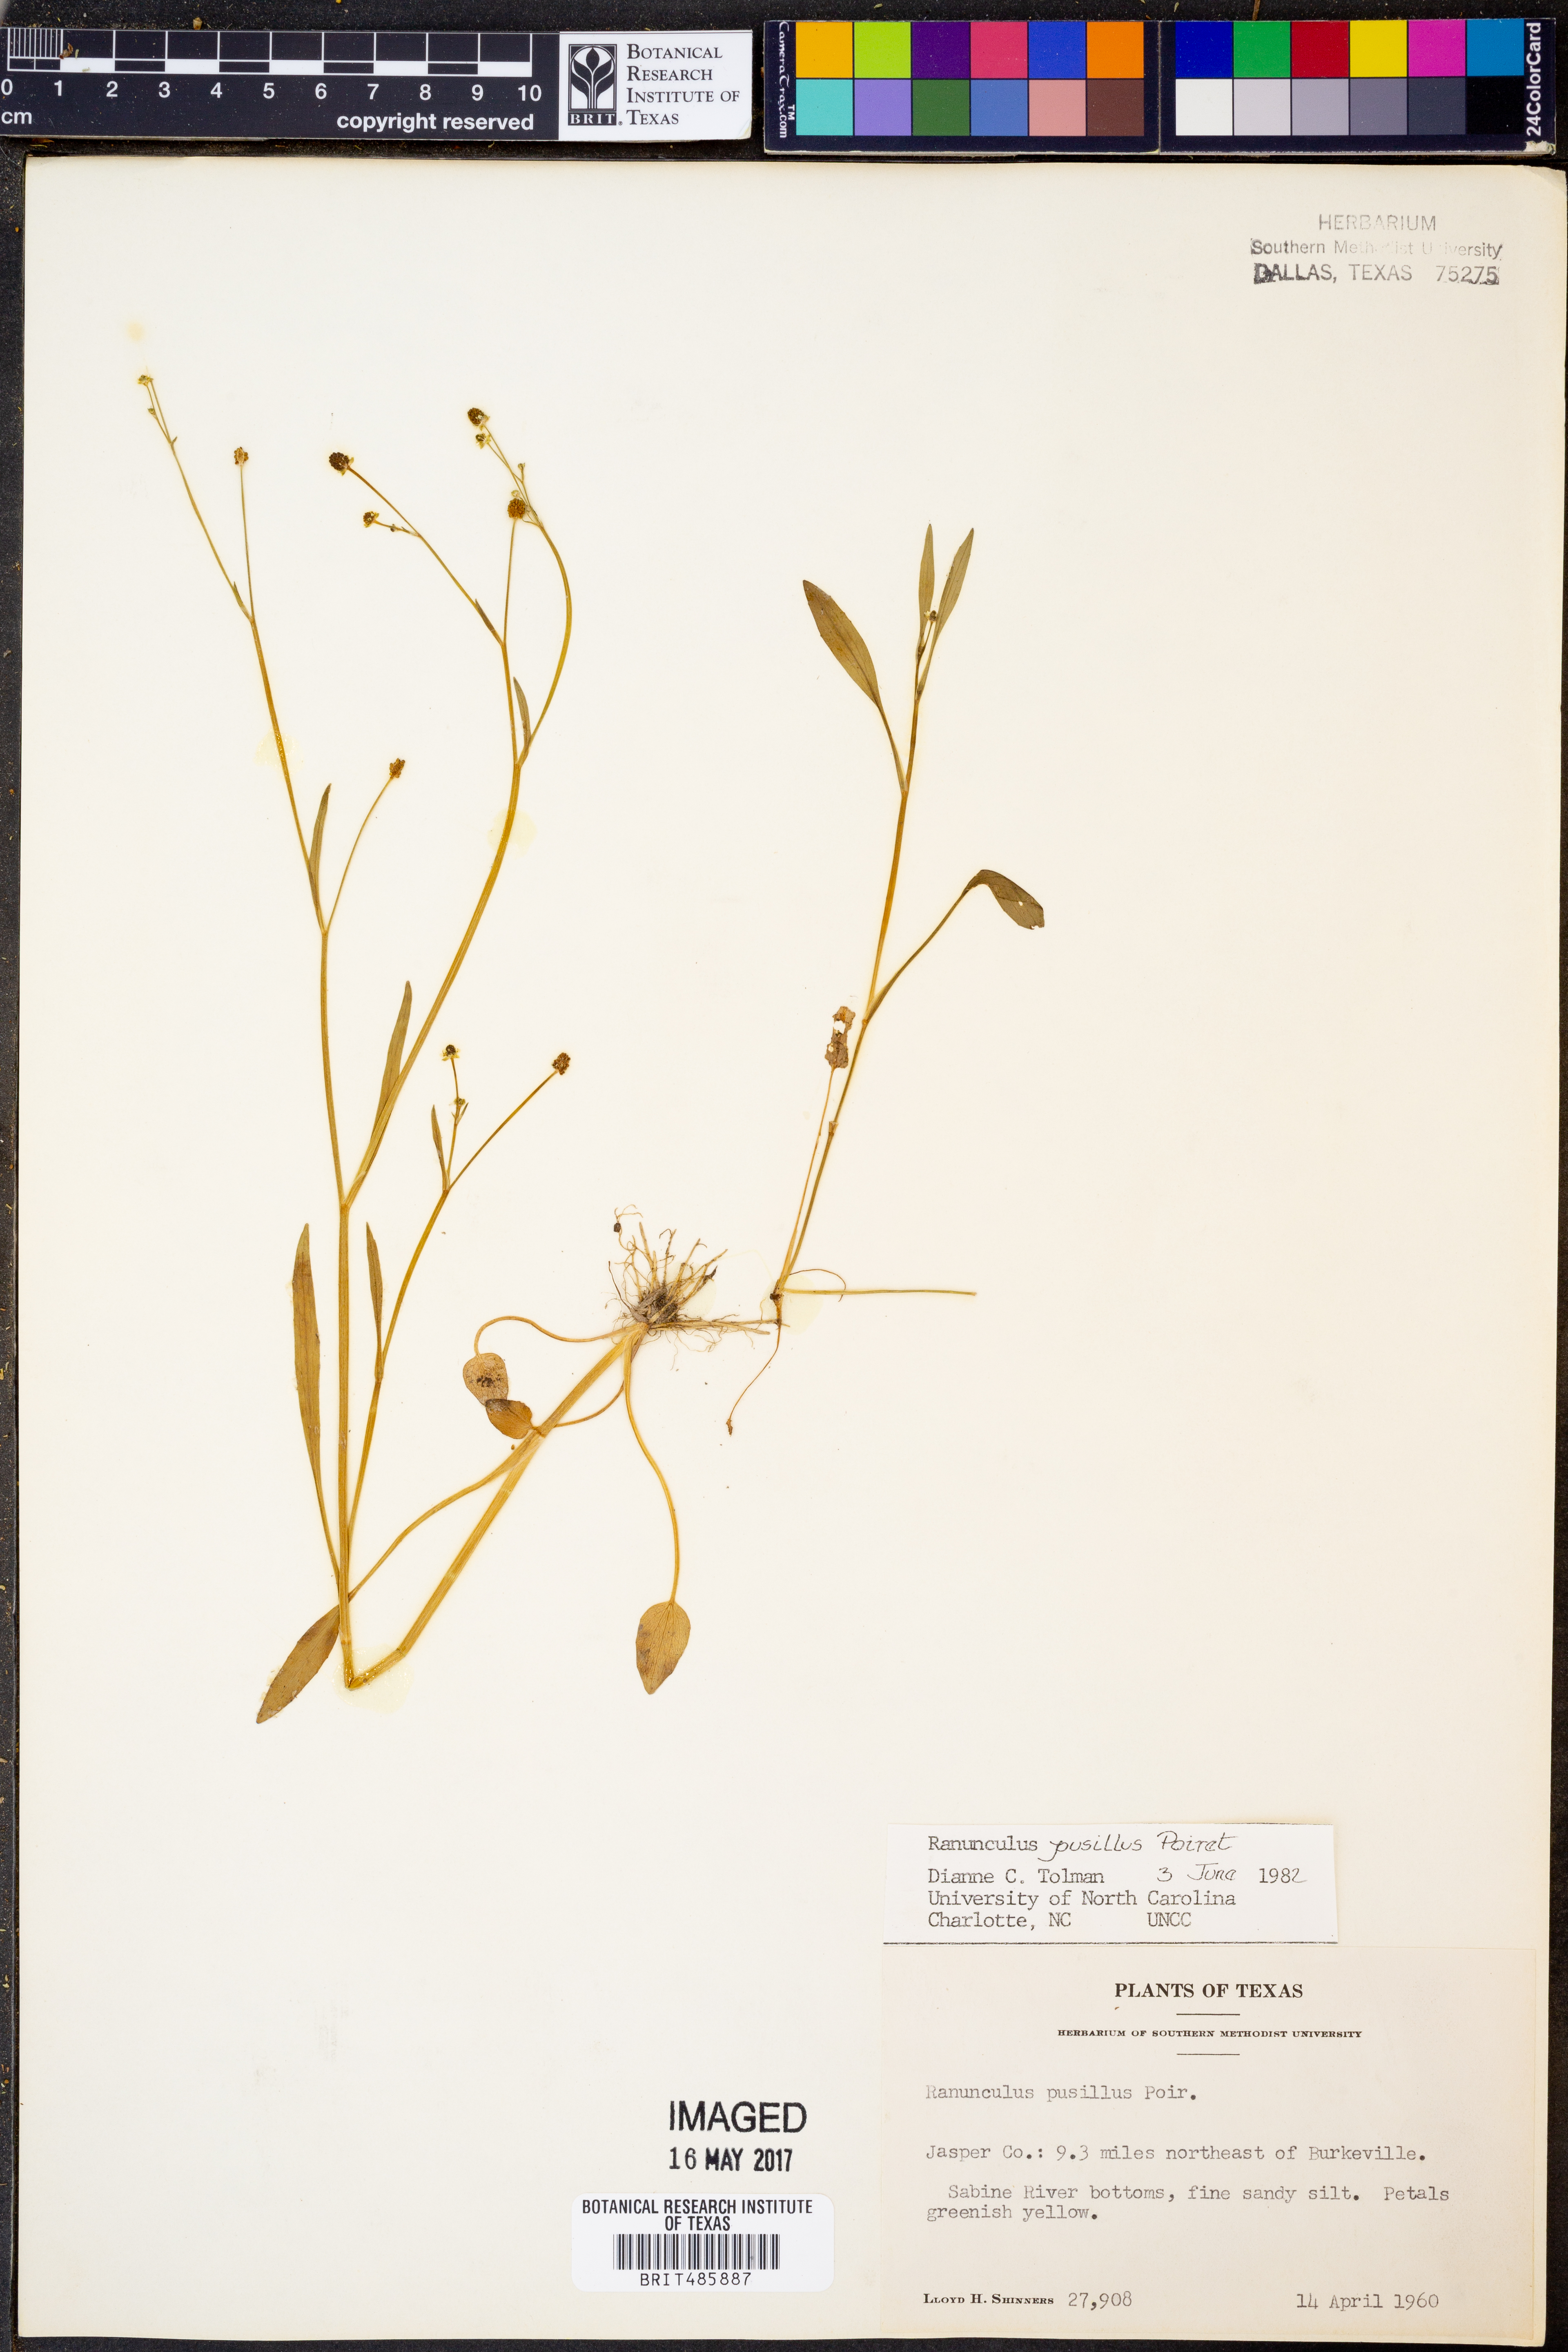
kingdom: Plantae
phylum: Tracheophyta
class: Magnoliopsida
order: Ranunculales
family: Ranunculaceae
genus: Ranunculus
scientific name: Ranunculus pusillus
